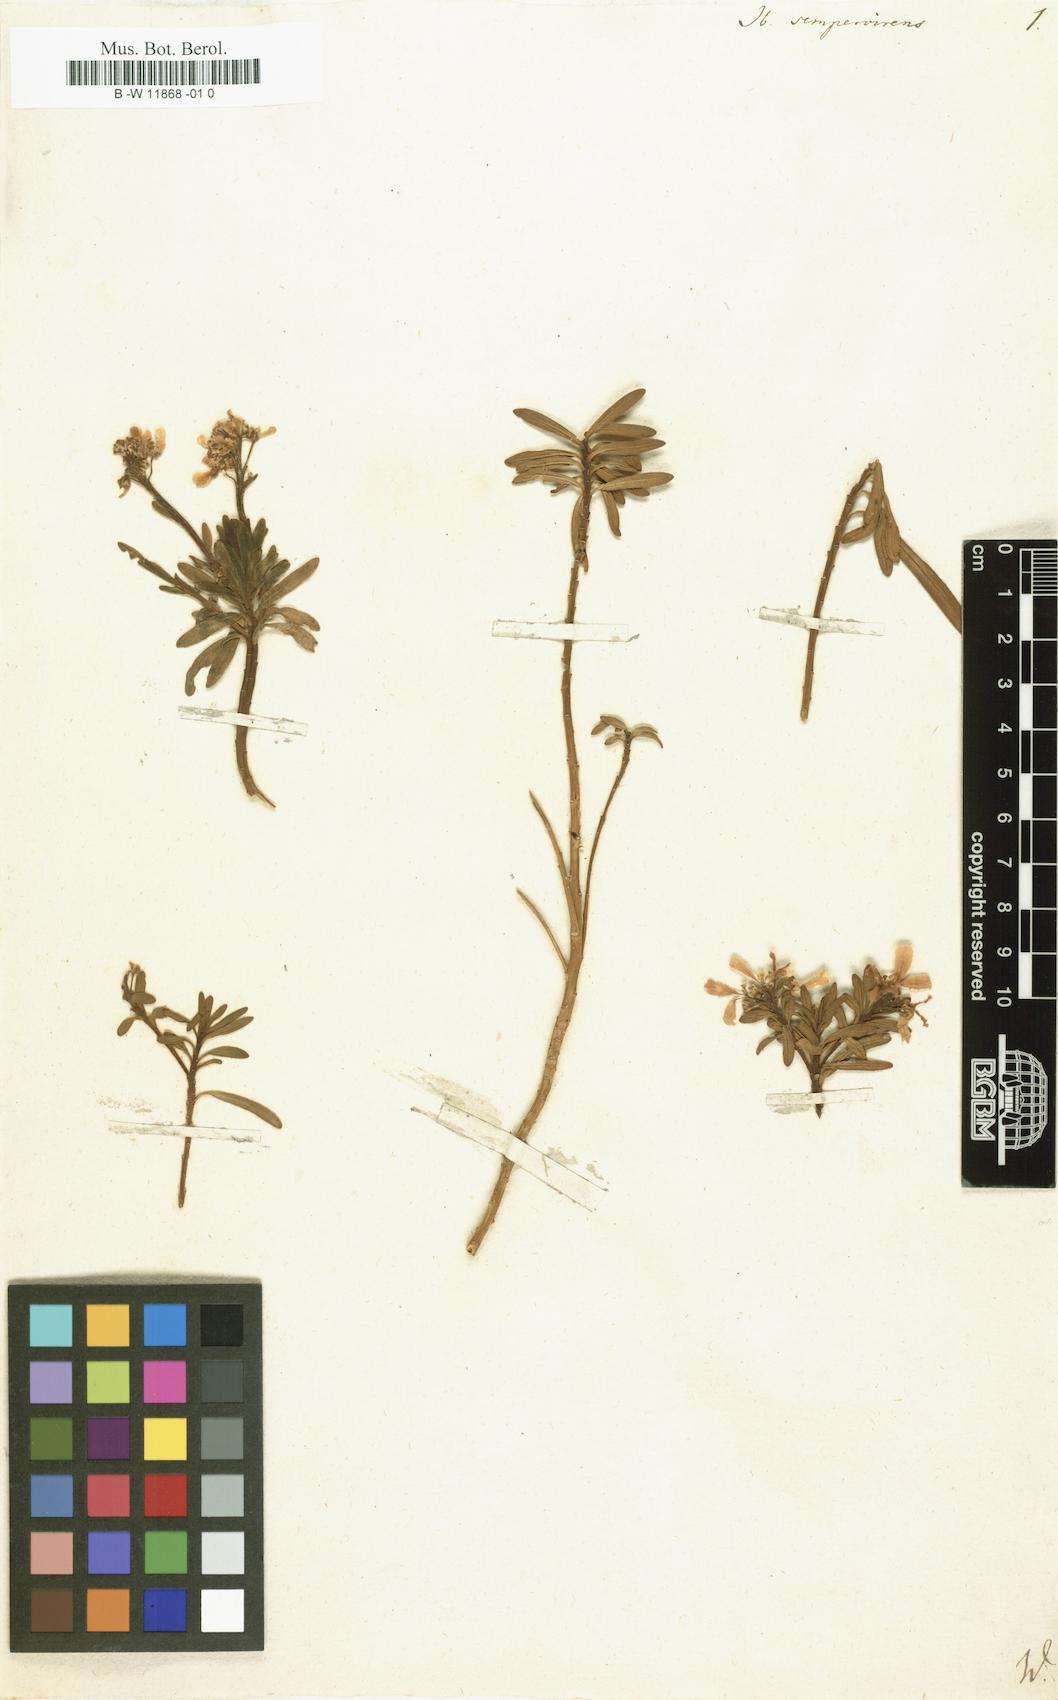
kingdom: Plantae
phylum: Tracheophyta
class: Magnoliopsida
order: Brassicales
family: Brassicaceae
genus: Iberis
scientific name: Iberis sempervirens
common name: Evergreen candytuft
